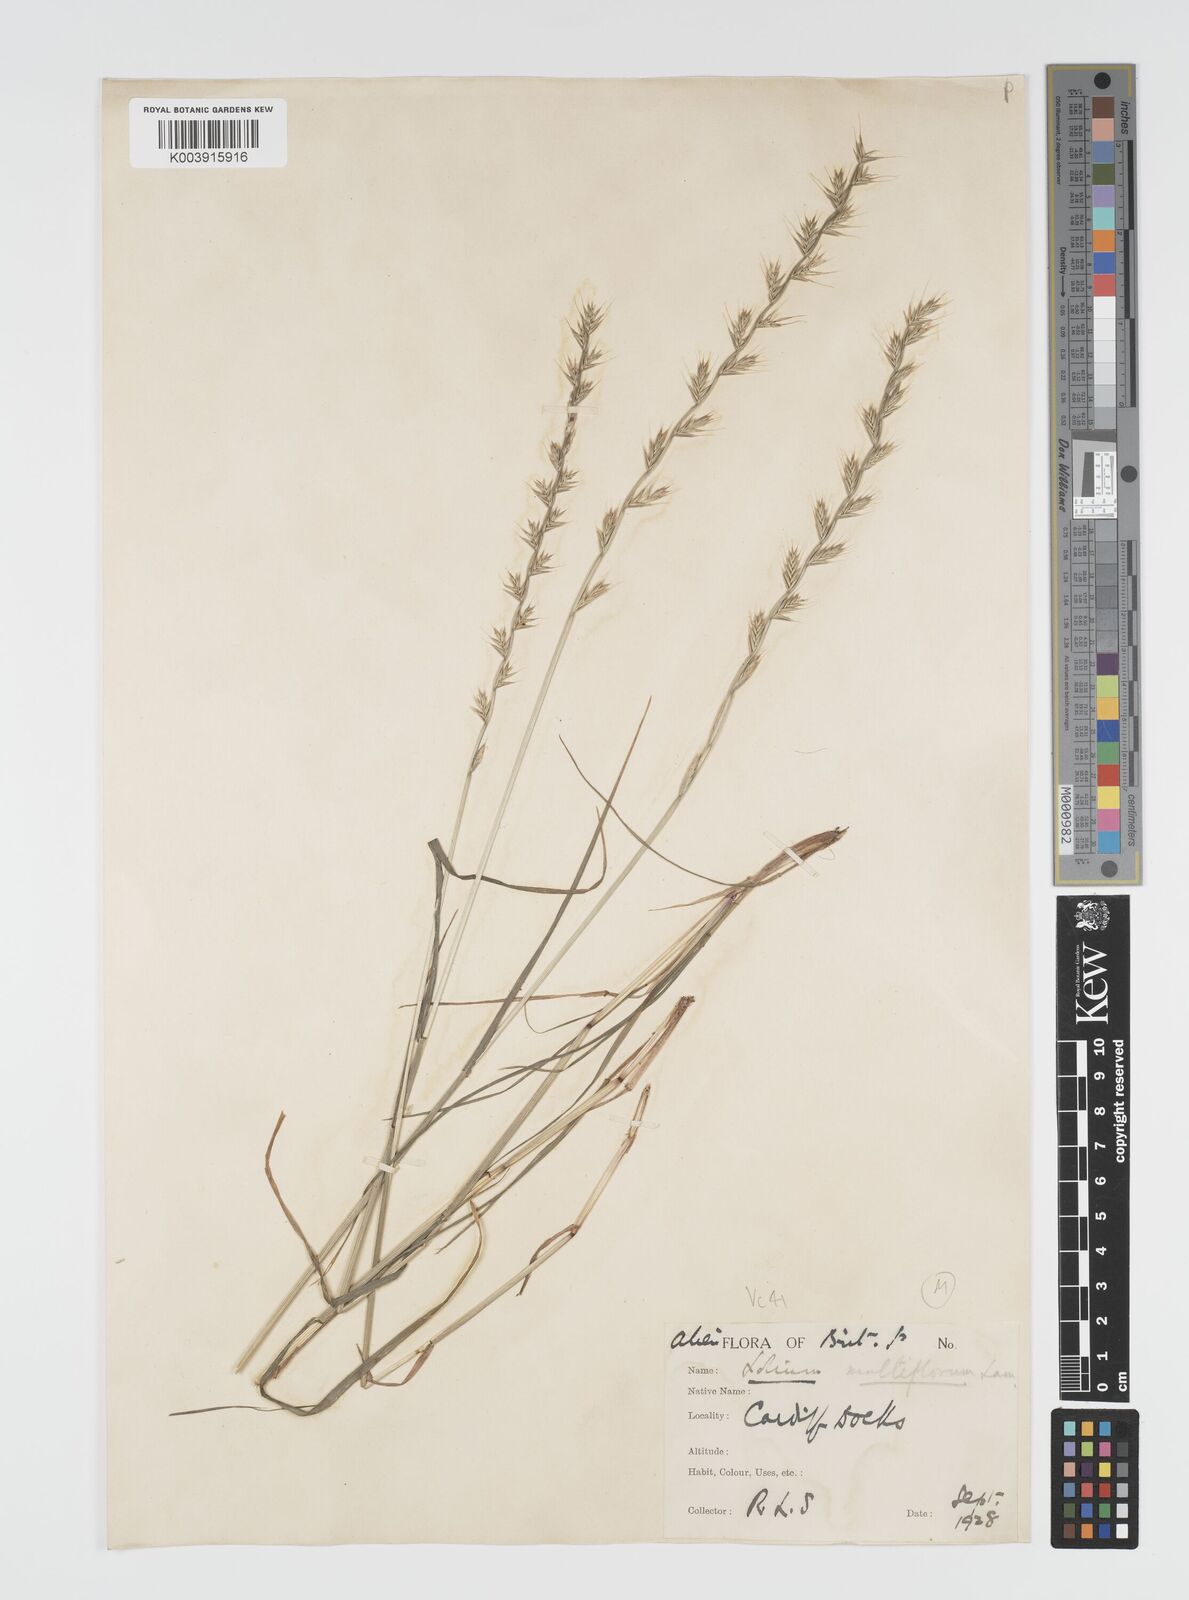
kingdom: Plantae
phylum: Tracheophyta
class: Liliopsida
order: Poales
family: Poaceae
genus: Lolium
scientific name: Lolium multiflorum
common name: Annual ryegrass
